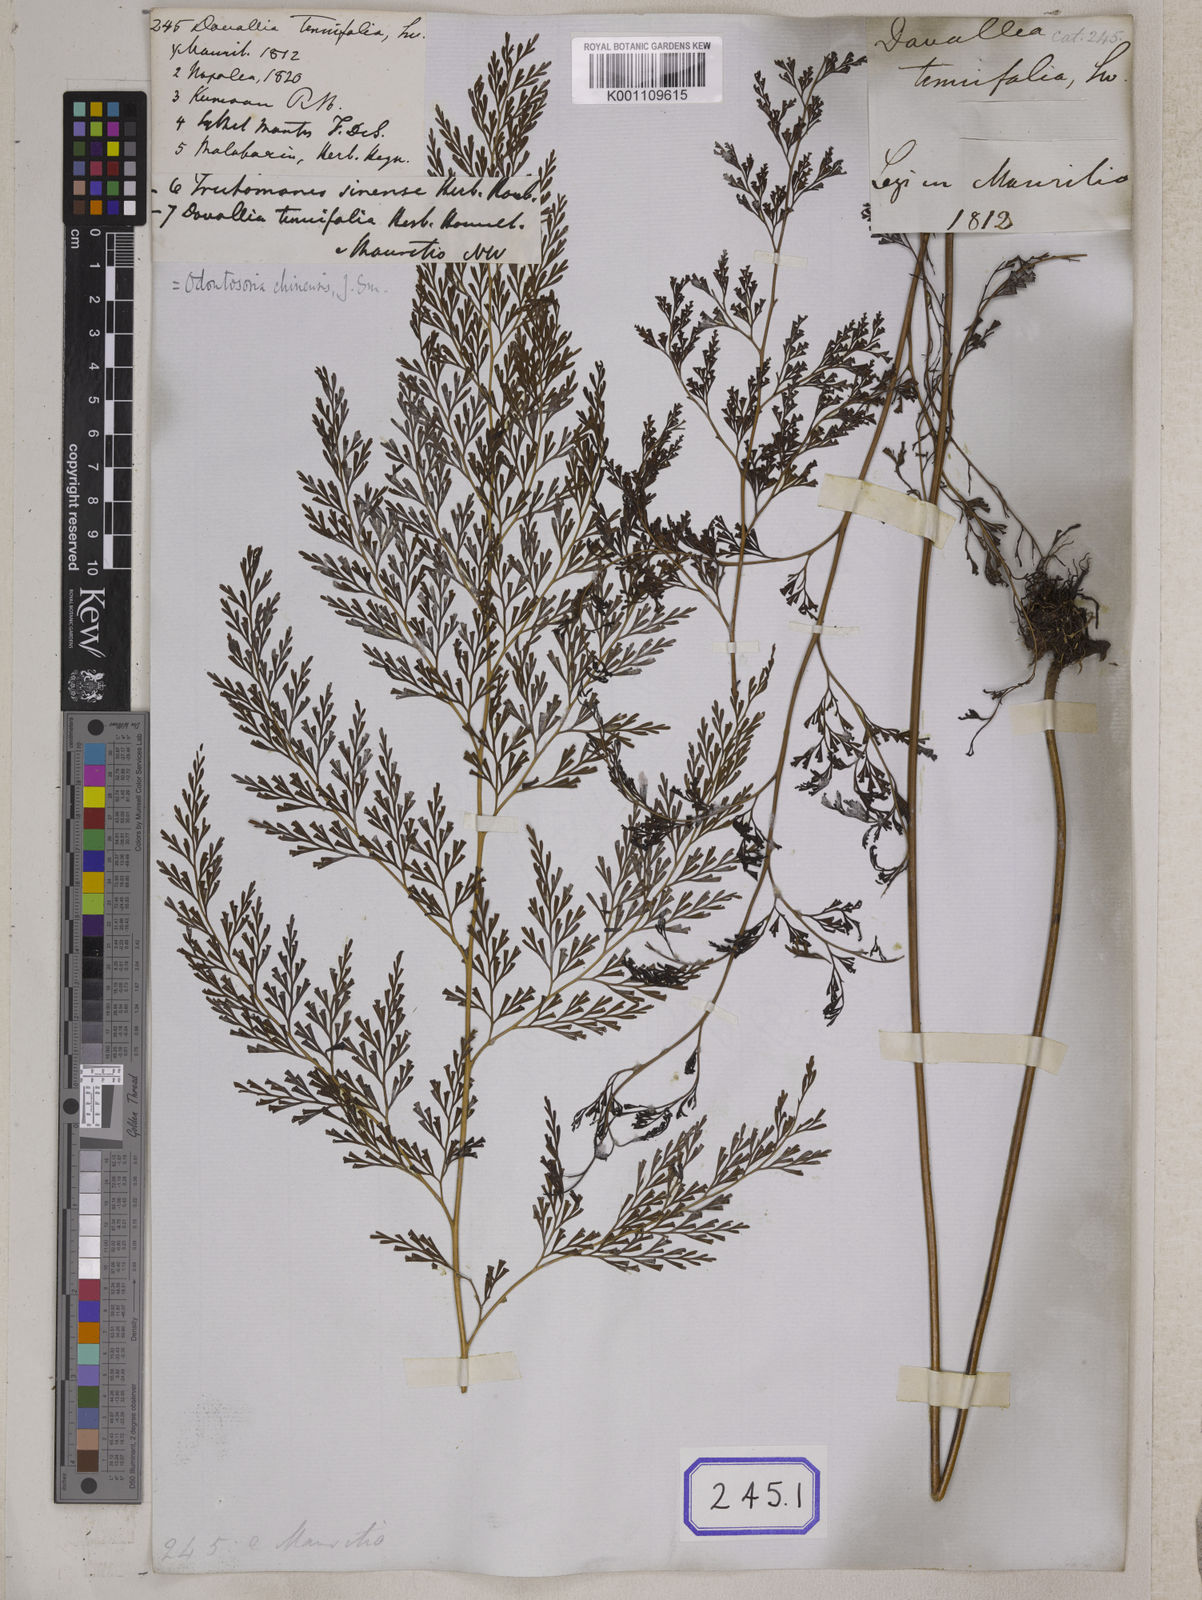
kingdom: Plantae
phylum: Tracheophyta
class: Polypodiopsida
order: Polypodiales
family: Lindsaeaceae
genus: Odontosoria
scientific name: Odontosoria chinensis
